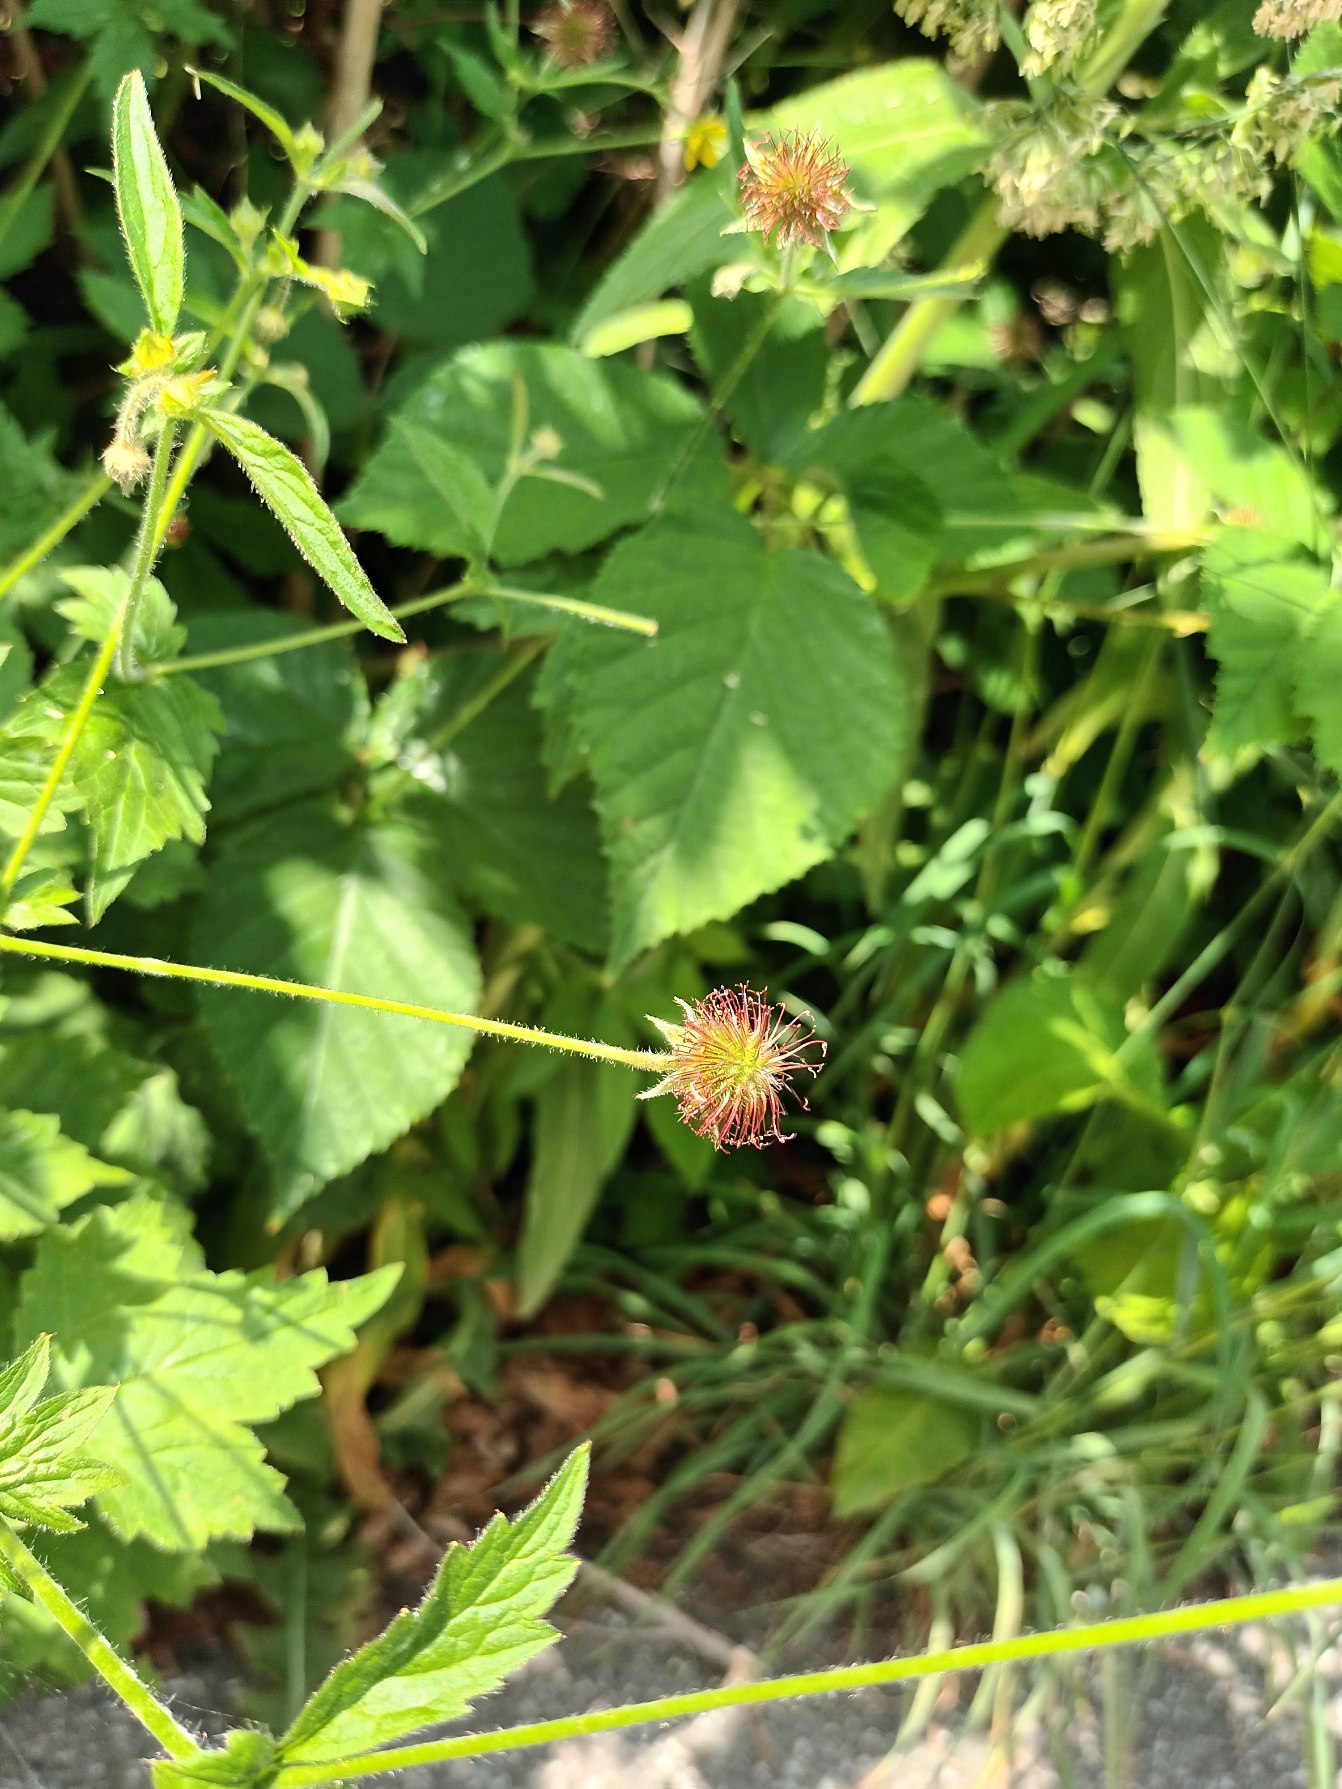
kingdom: Plantae
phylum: Tracheophyta
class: Magnoliopsida
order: Rosales
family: Rosaceae
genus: Geum
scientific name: Geum urbanum
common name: Feber-nellikerod
